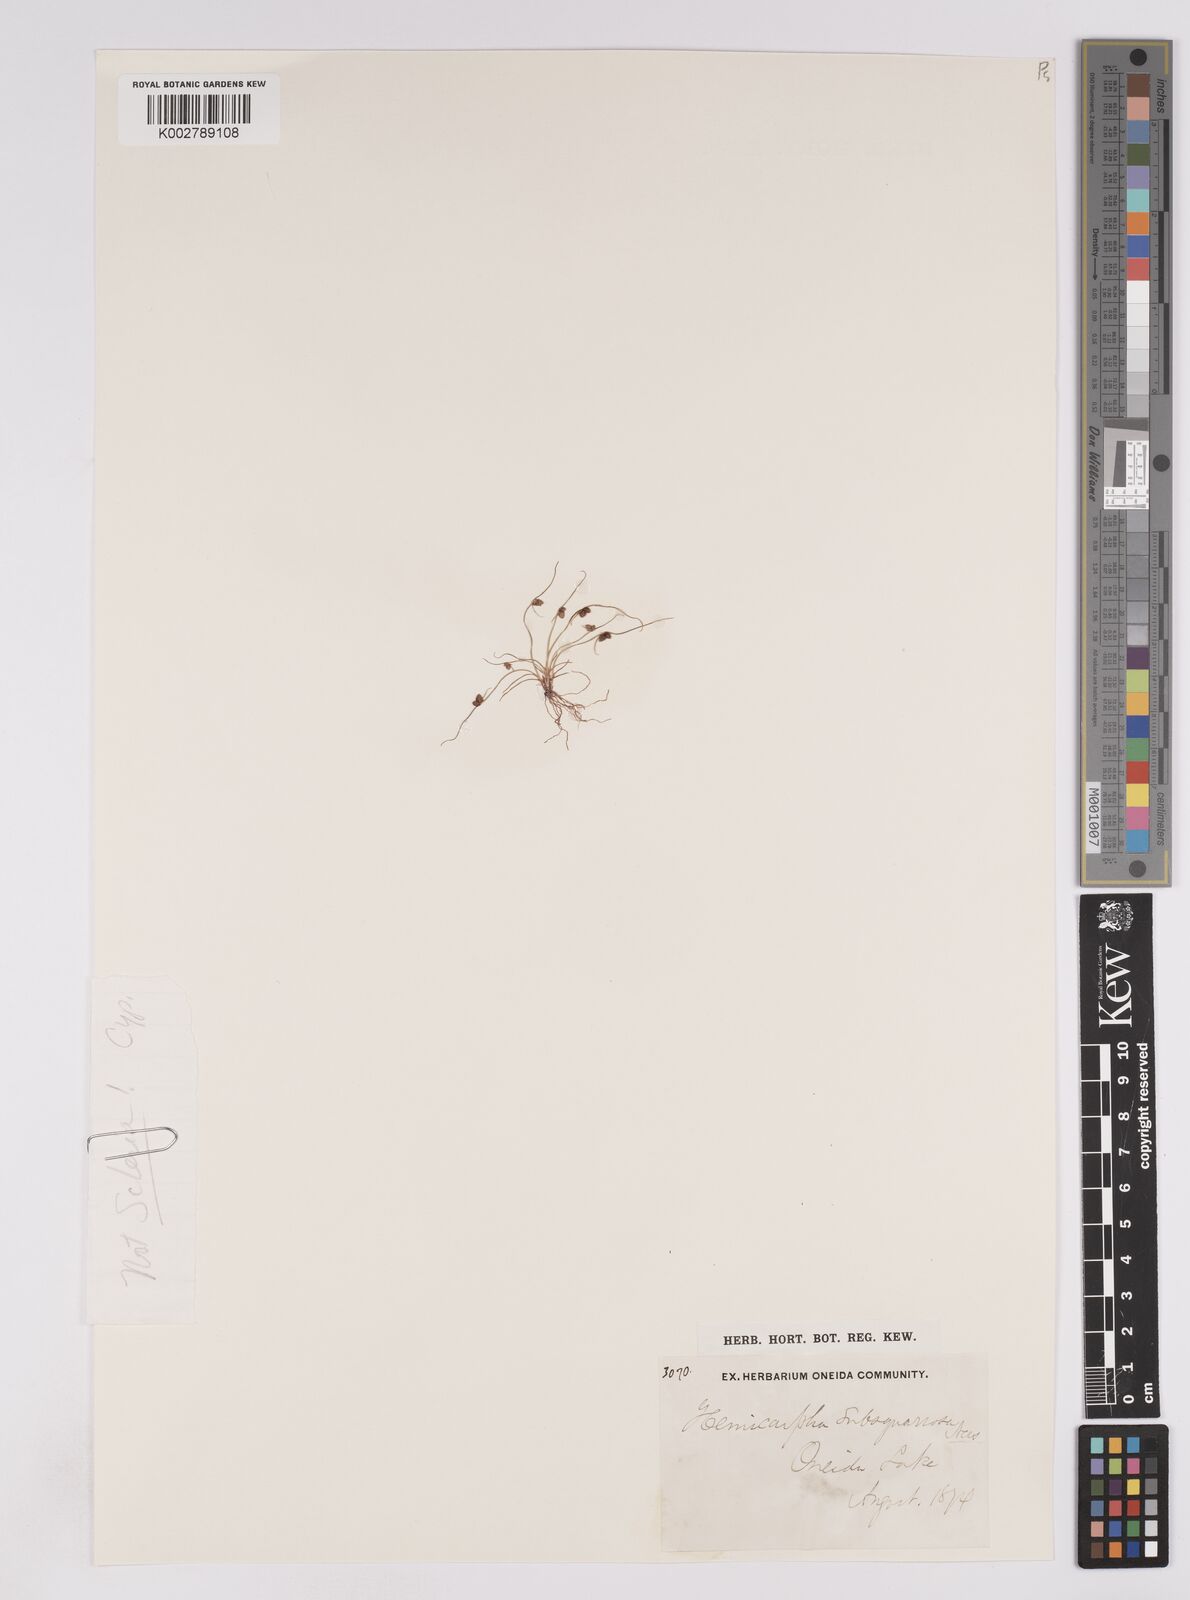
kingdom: Plantae
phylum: Tracheophyta
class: Liliopsida
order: Poales
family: Cyperaceae
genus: Scleria
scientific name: Scleria ciliata
